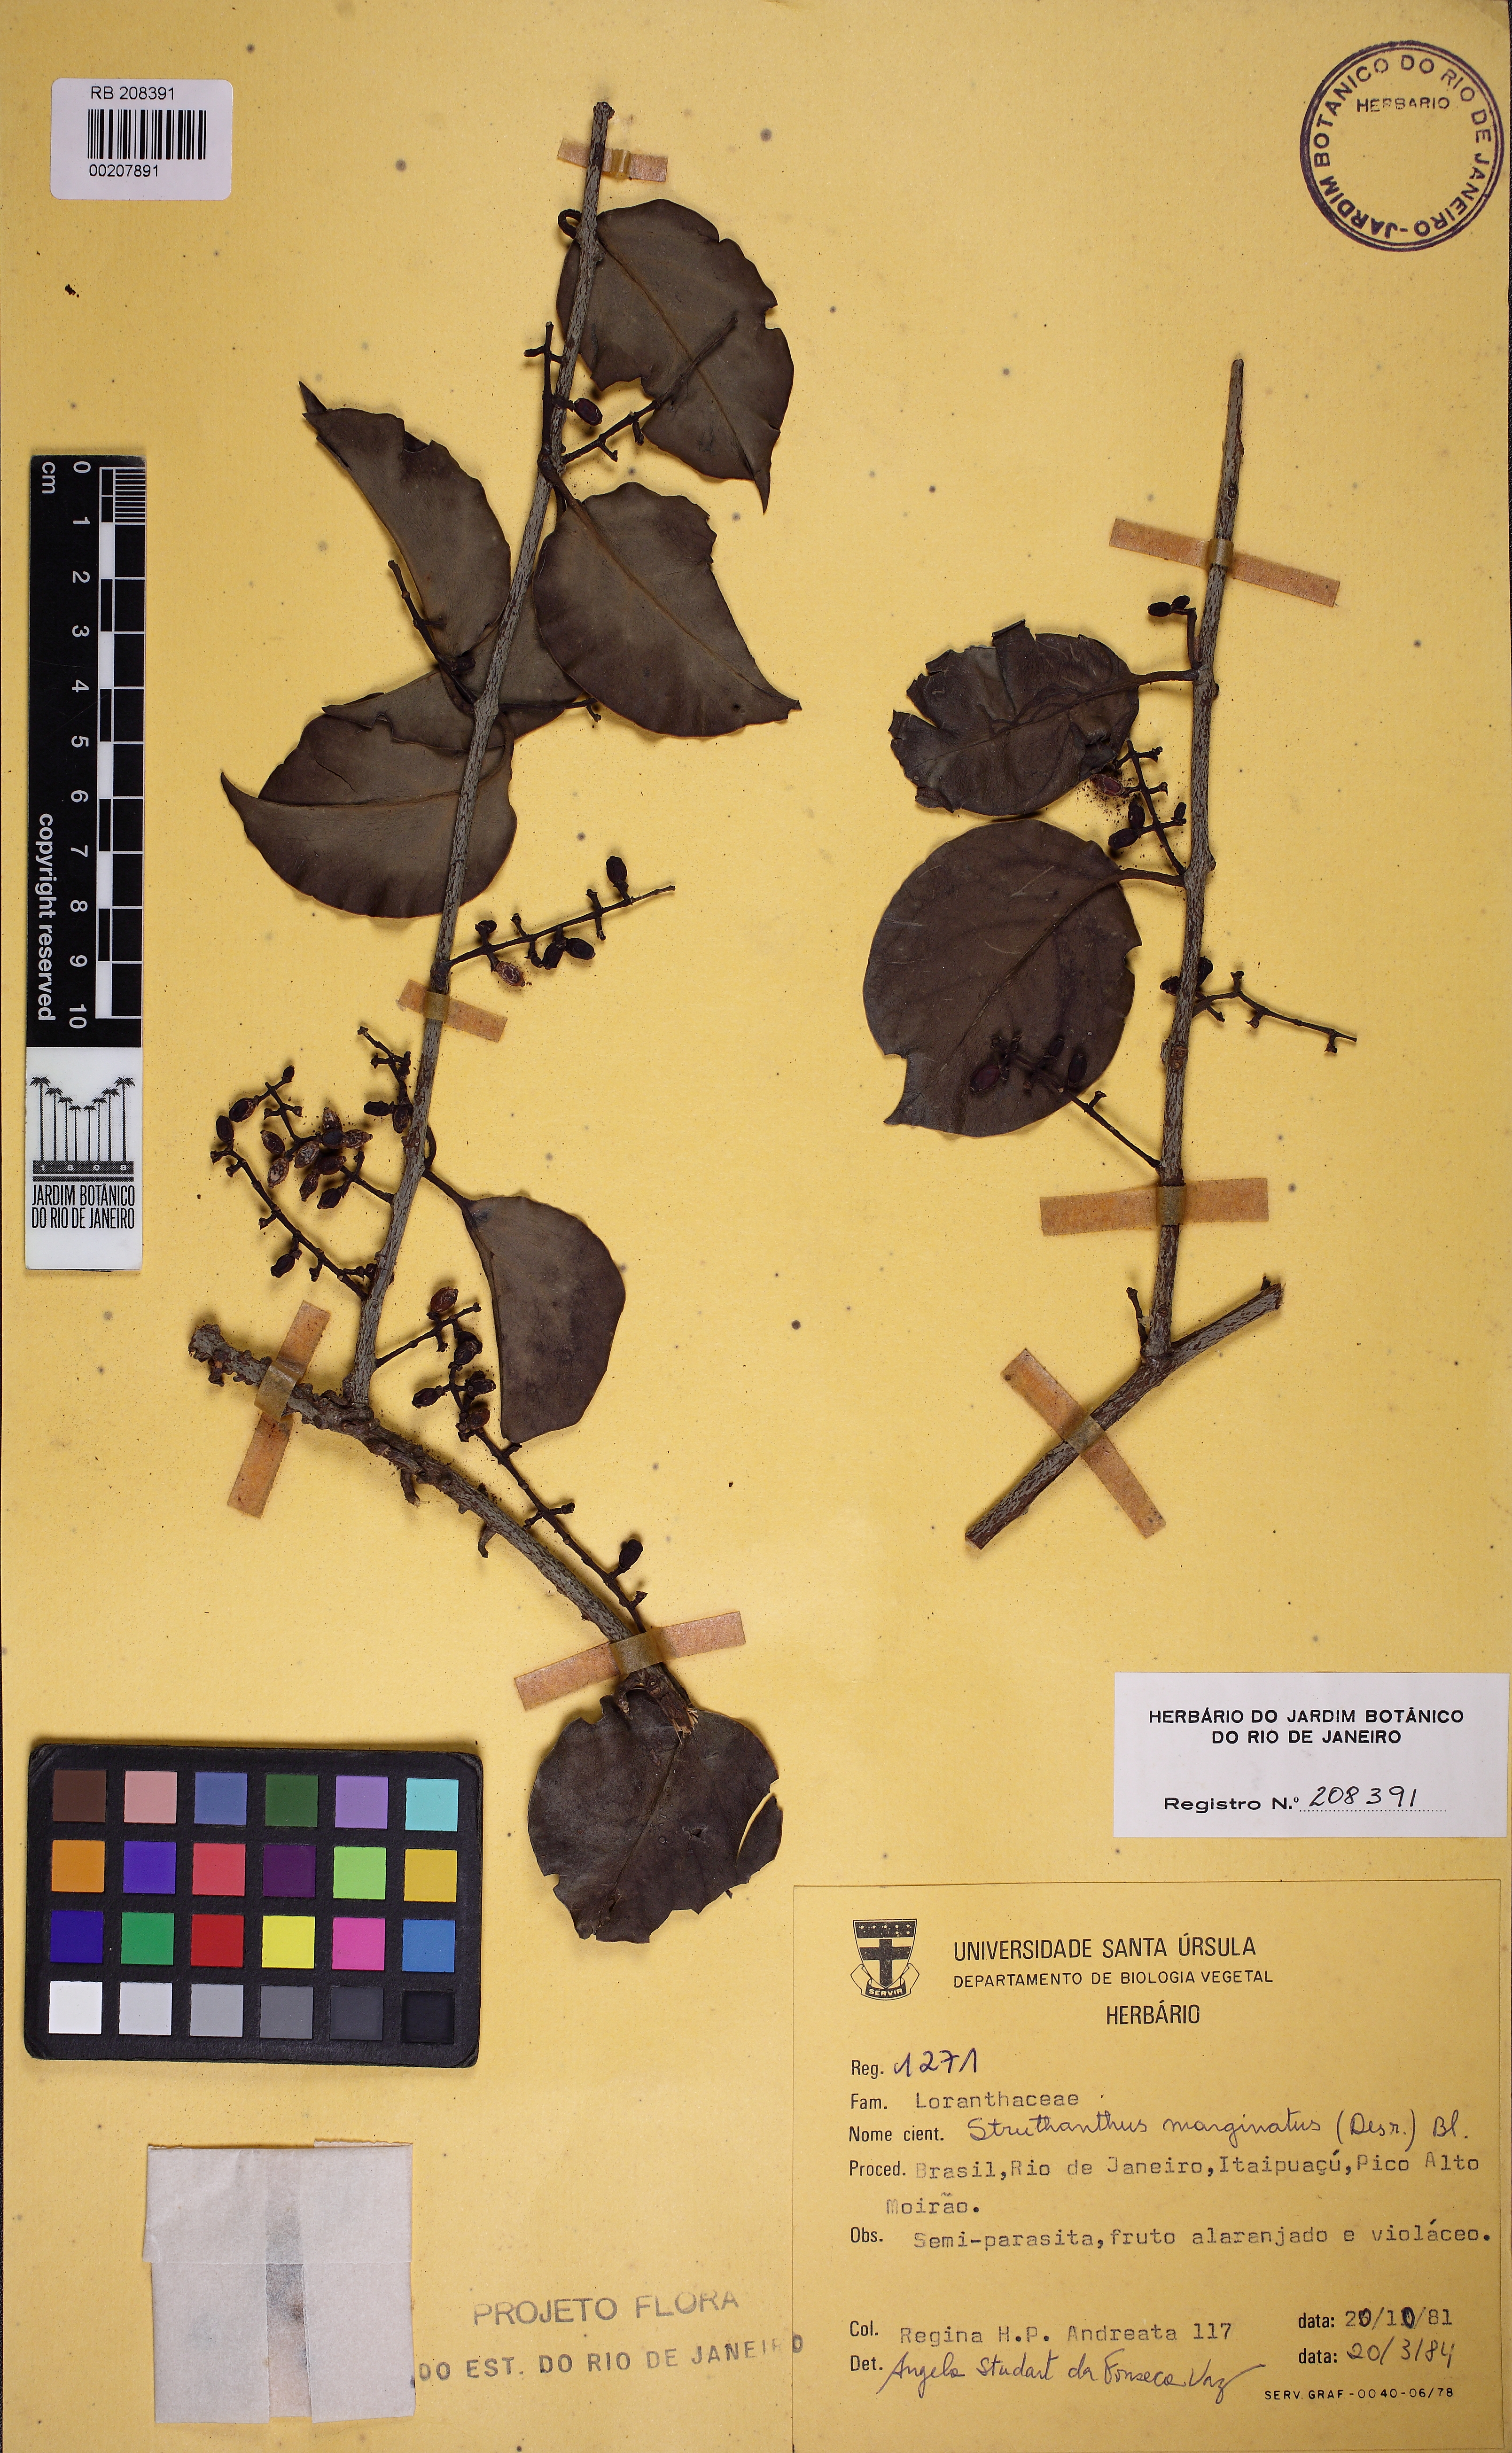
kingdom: Plantae
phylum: Tracheophyta
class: Magnoliopsida
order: Santalales
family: Loranthaceae
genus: Struthanthus
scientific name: Struthanthus marginatus
